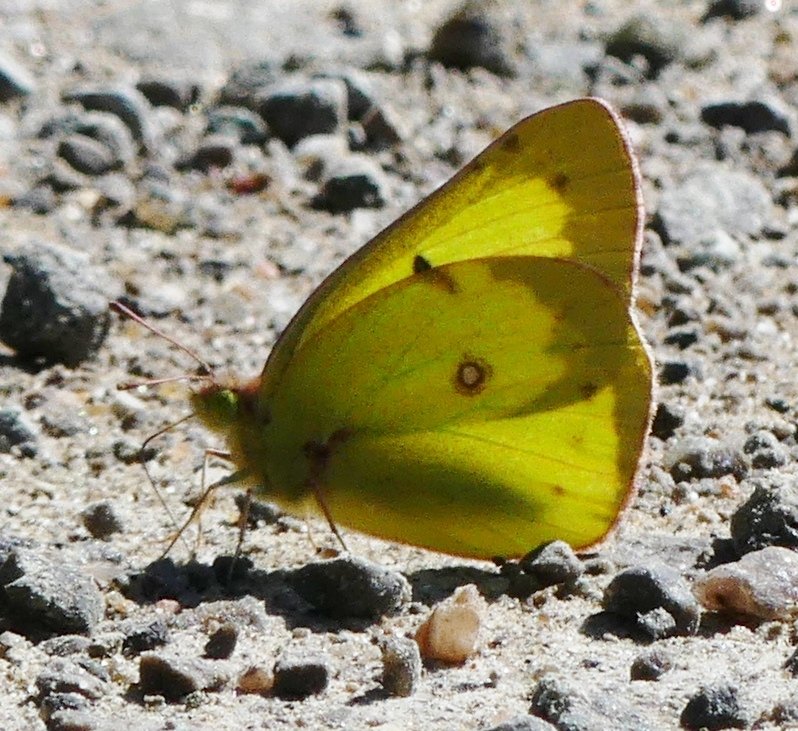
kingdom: Animalia
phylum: Arthropoda
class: Insecta
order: Lepidoptera
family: Pieridae
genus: Colias
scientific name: Colias philodice
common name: Clouded Sulphur
